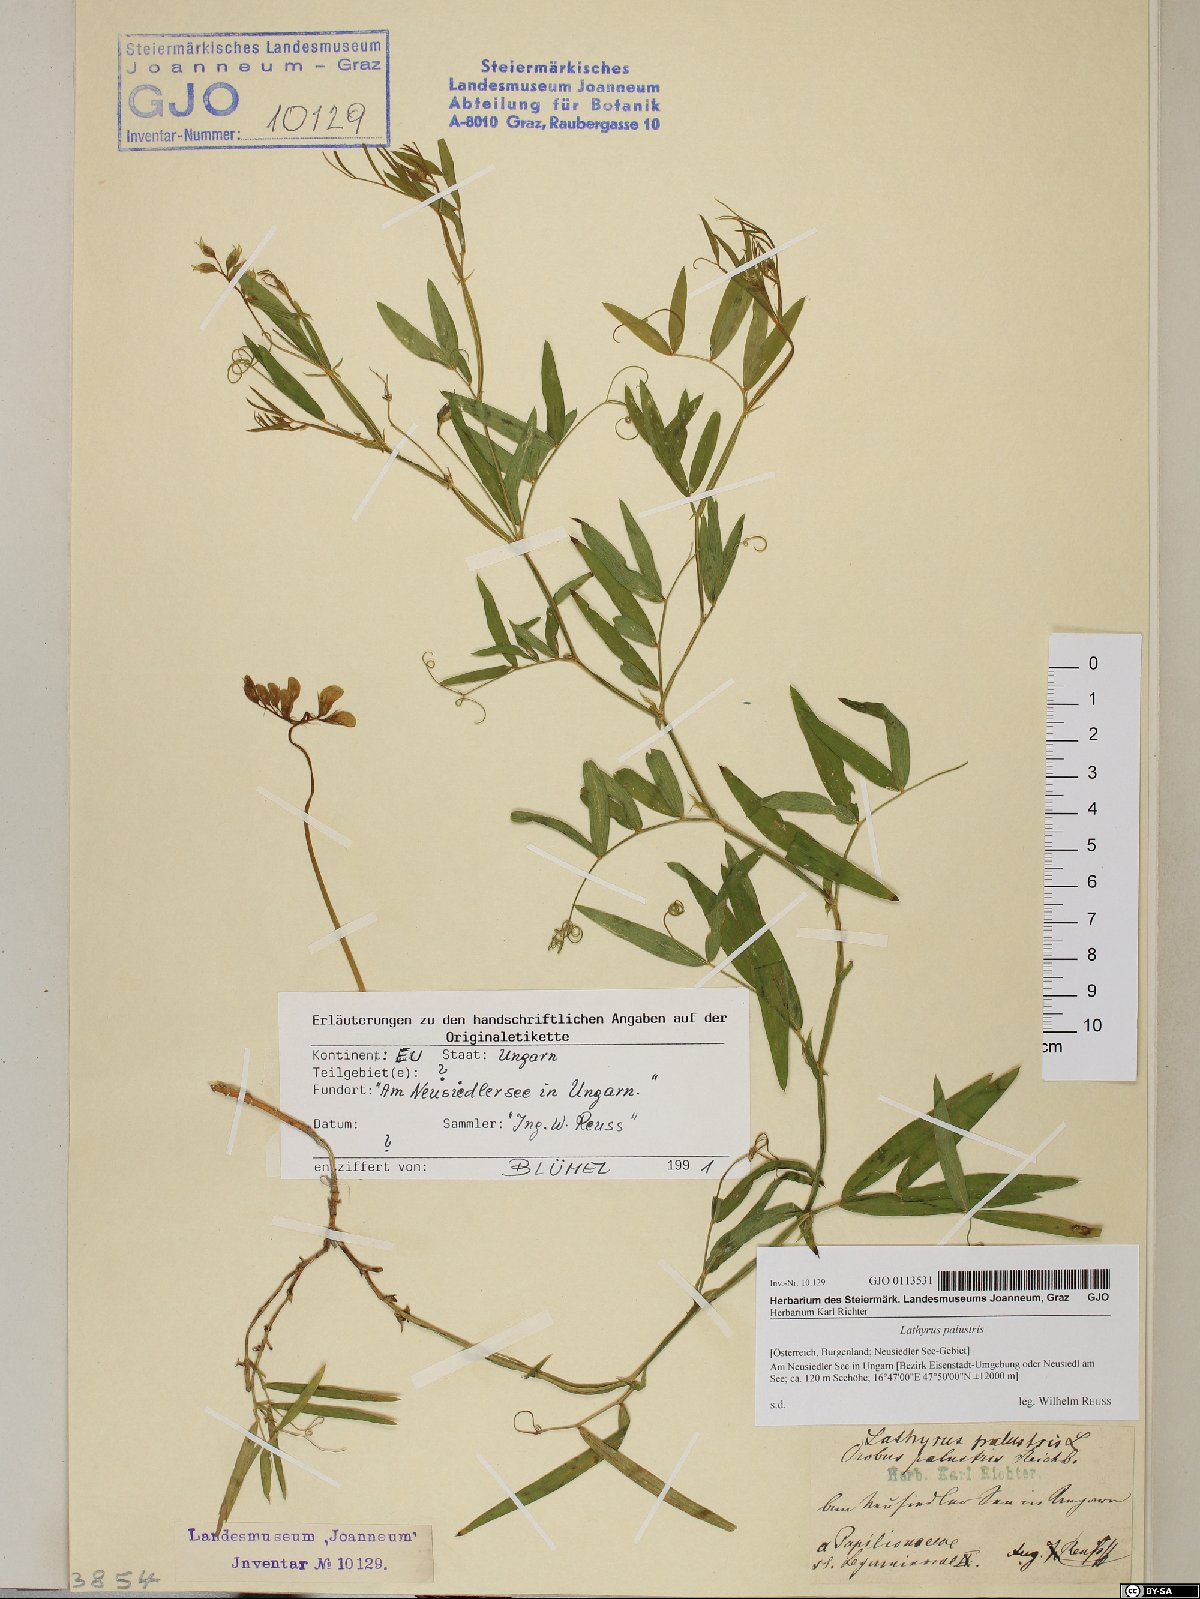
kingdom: Plantae
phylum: Tracheophyta
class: Magnoliopsida
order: Fabales
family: Fabaceae
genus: Lathyrus
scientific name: Lathyrus palustris
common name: Marsh pea
